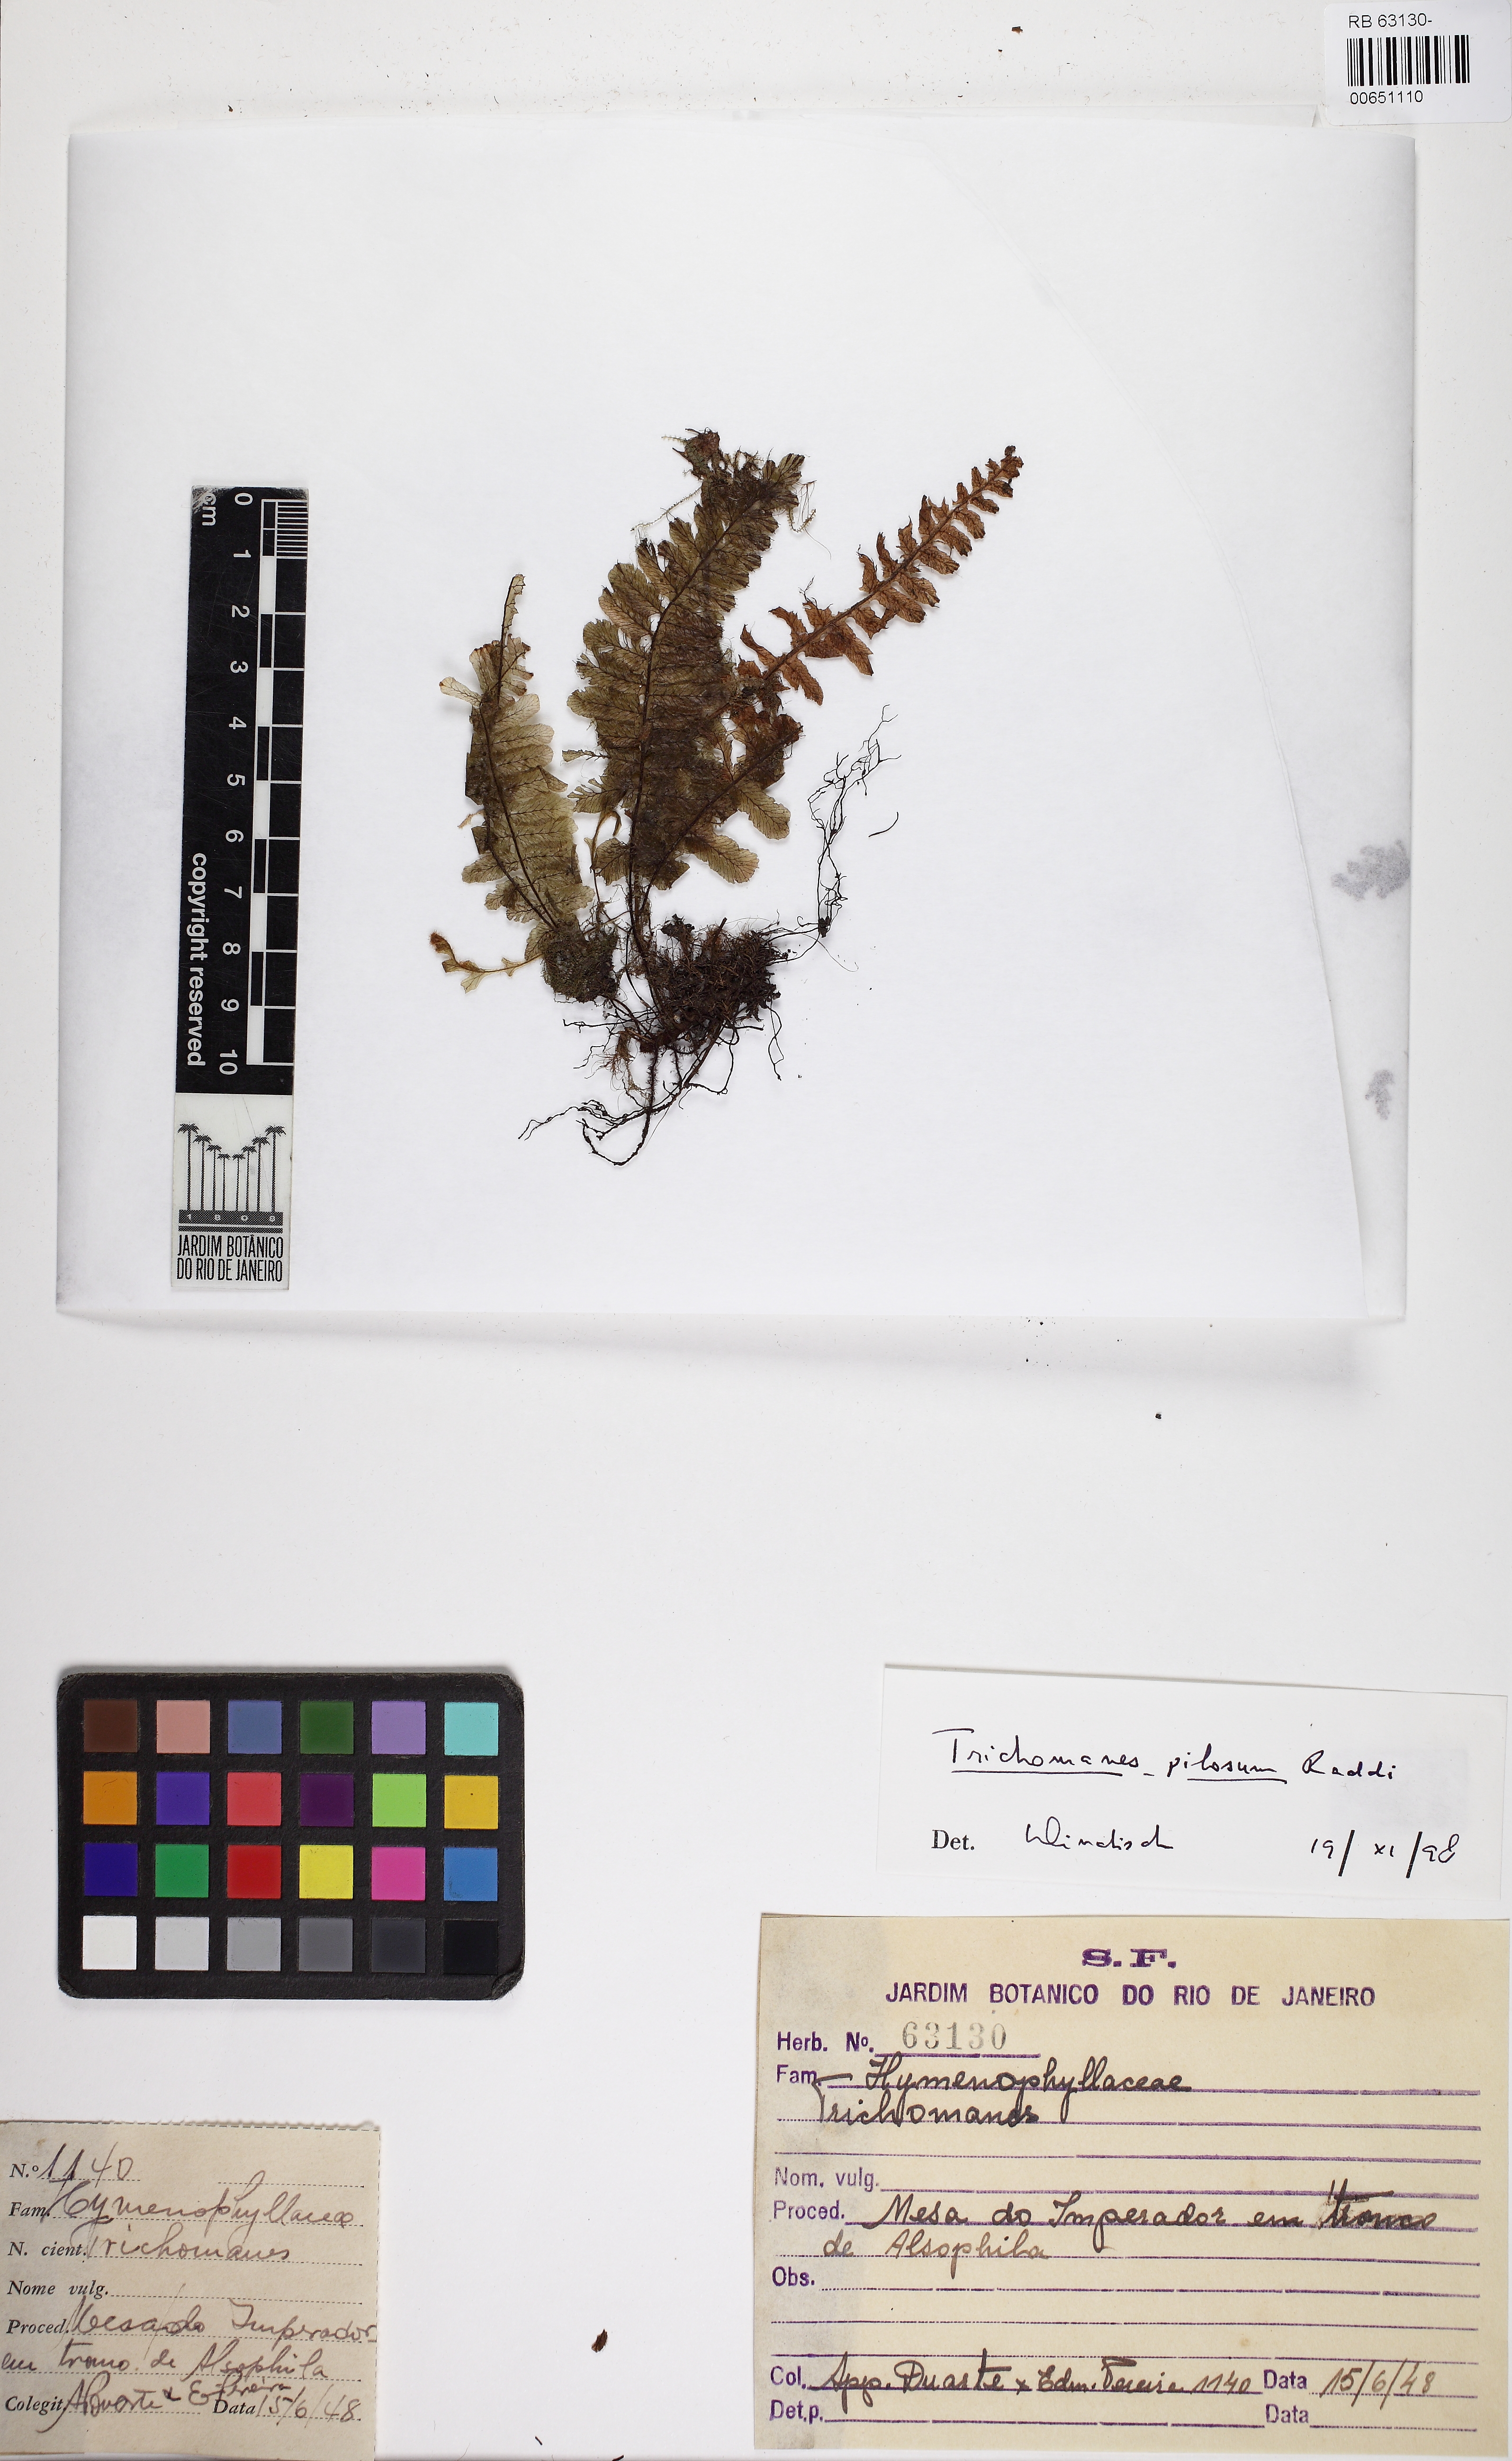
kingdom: Plantae
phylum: Tracheophyta
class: Polypodiopsida
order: Hymenophyllales
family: Hymenophyllaceae
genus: Trichomanes
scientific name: Trichomanes pilosum
